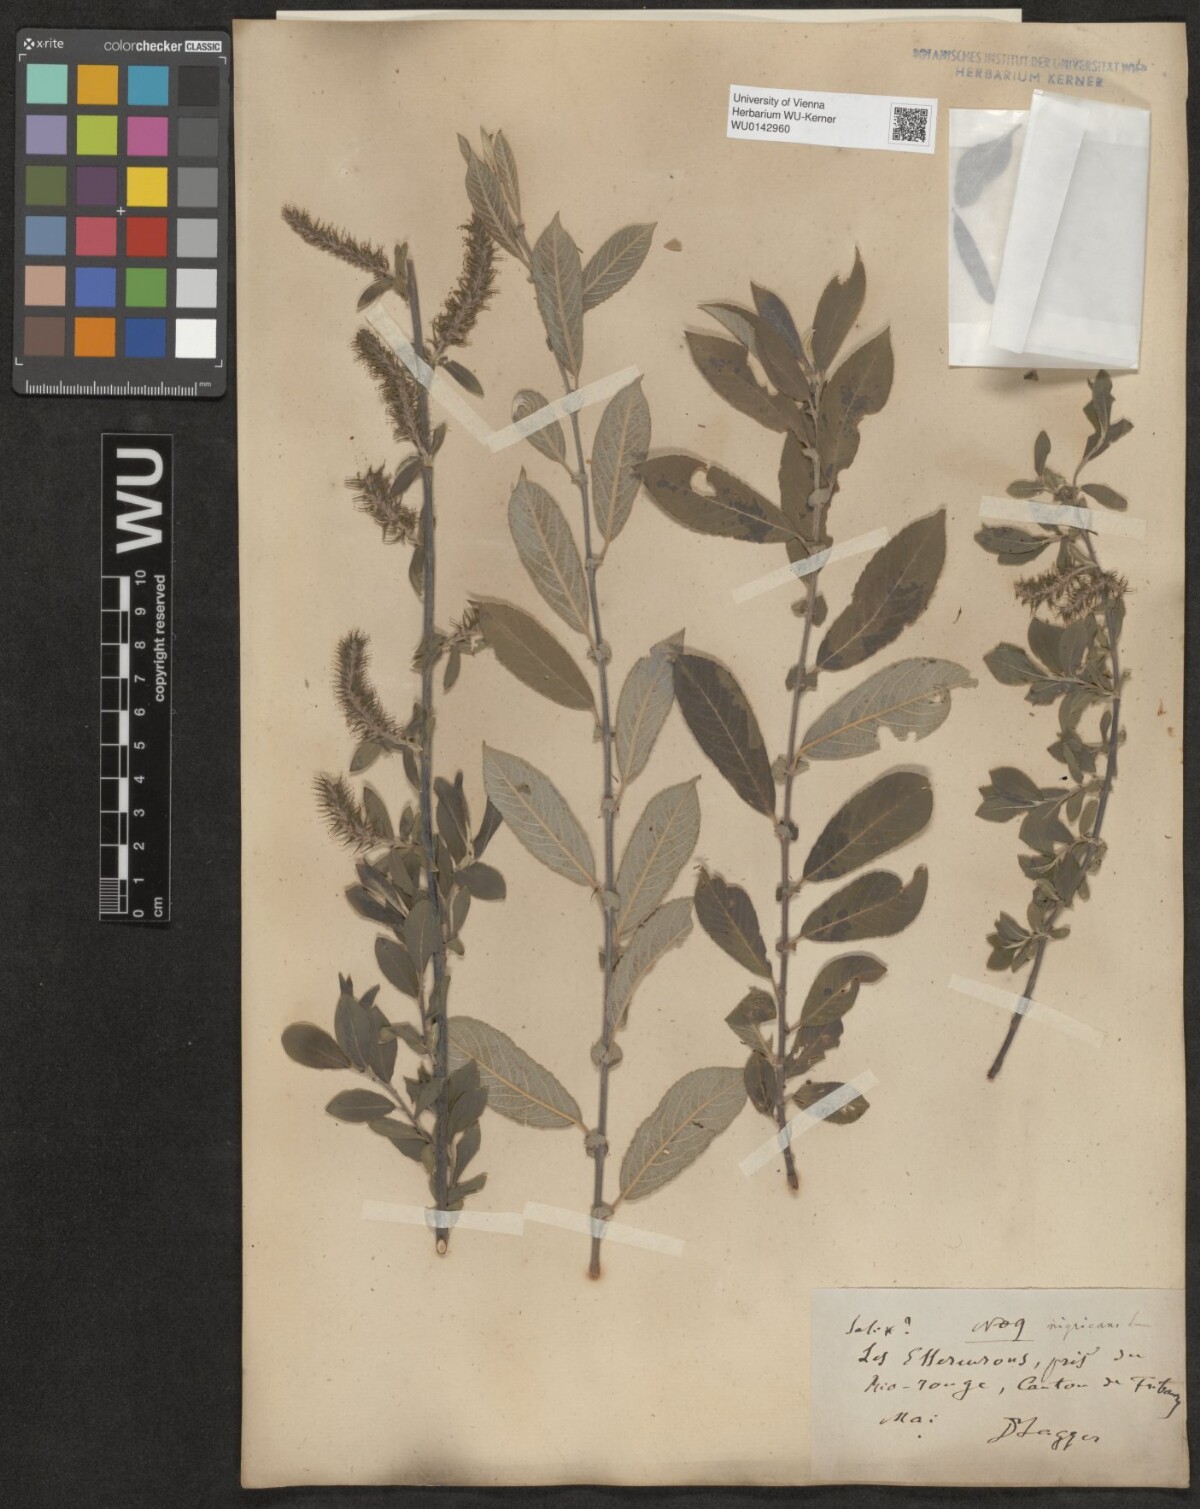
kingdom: Plantae
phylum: Tracheophyta
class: Magnoliopsida
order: Malpighiales
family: Salicaceae
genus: Salix
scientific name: Salix myrsinifolia
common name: Dark-leaved willow
